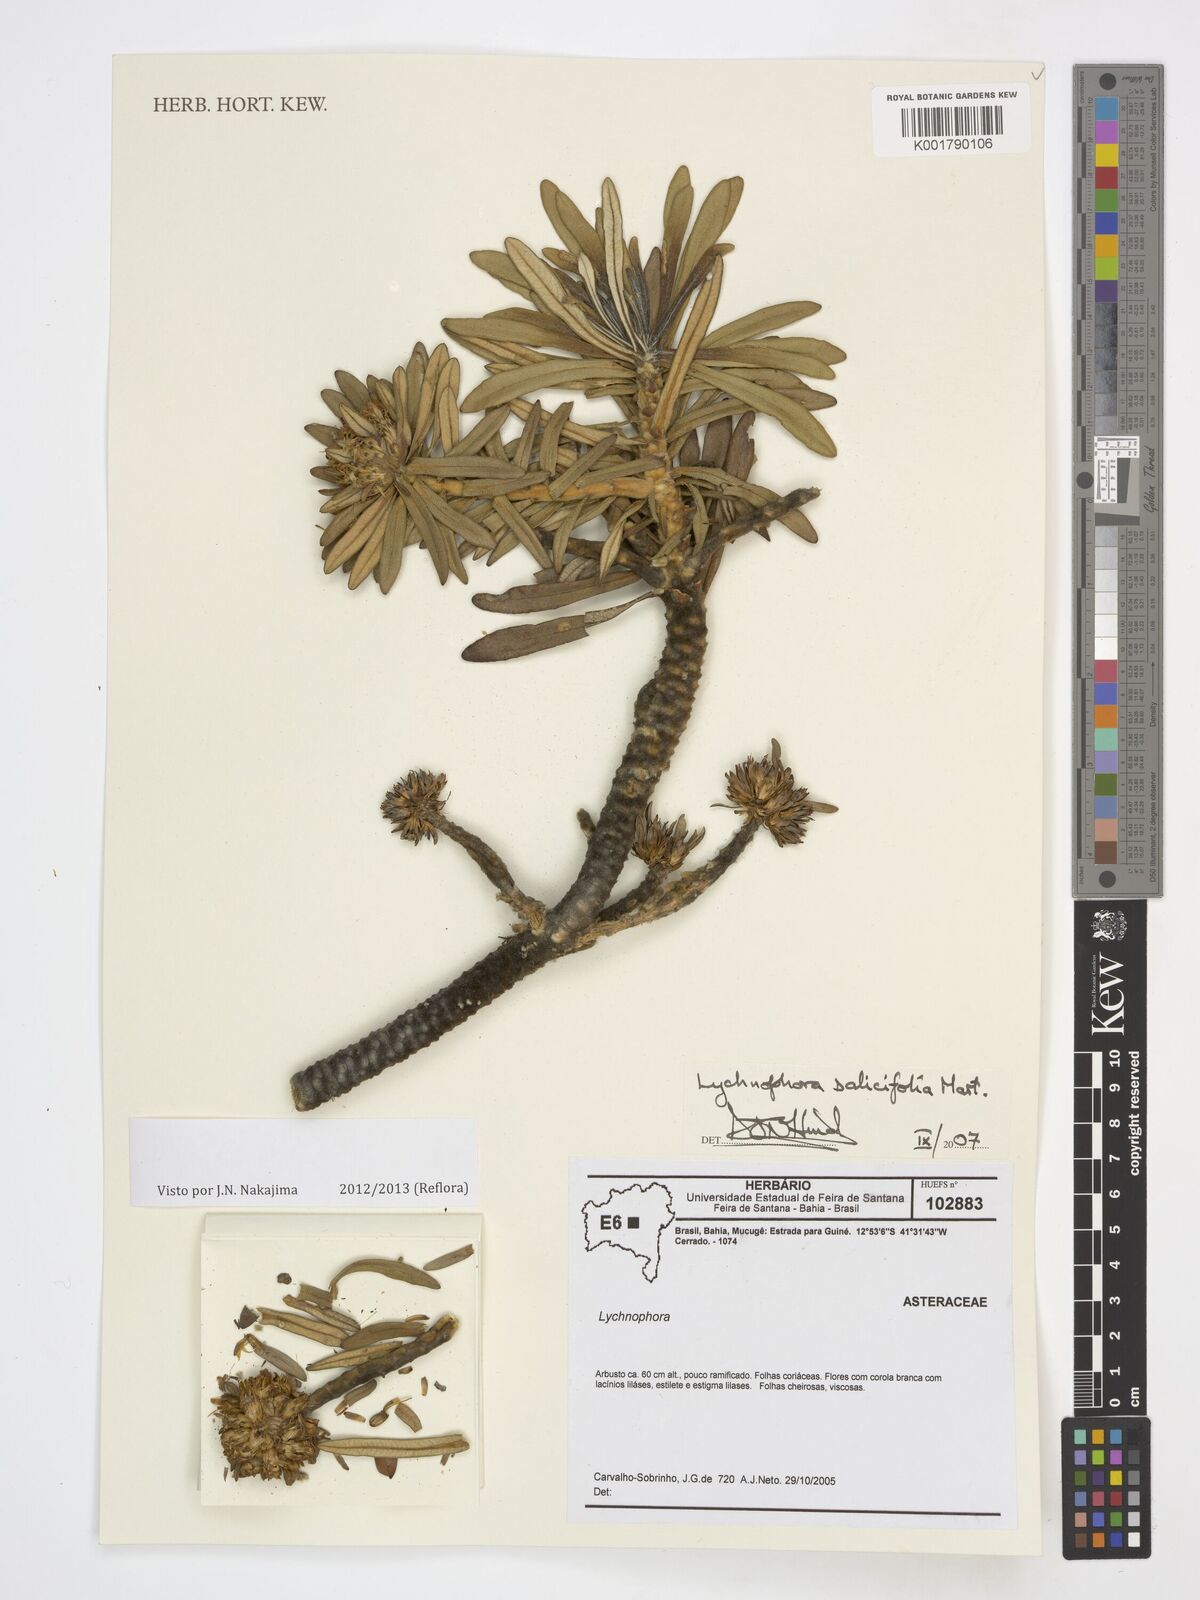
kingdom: Plantae
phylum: Tracheophyta
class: Magnoliopsida
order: Asterales
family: Asteraceae
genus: Lychnophora
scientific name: Lychnophora salicifolia
